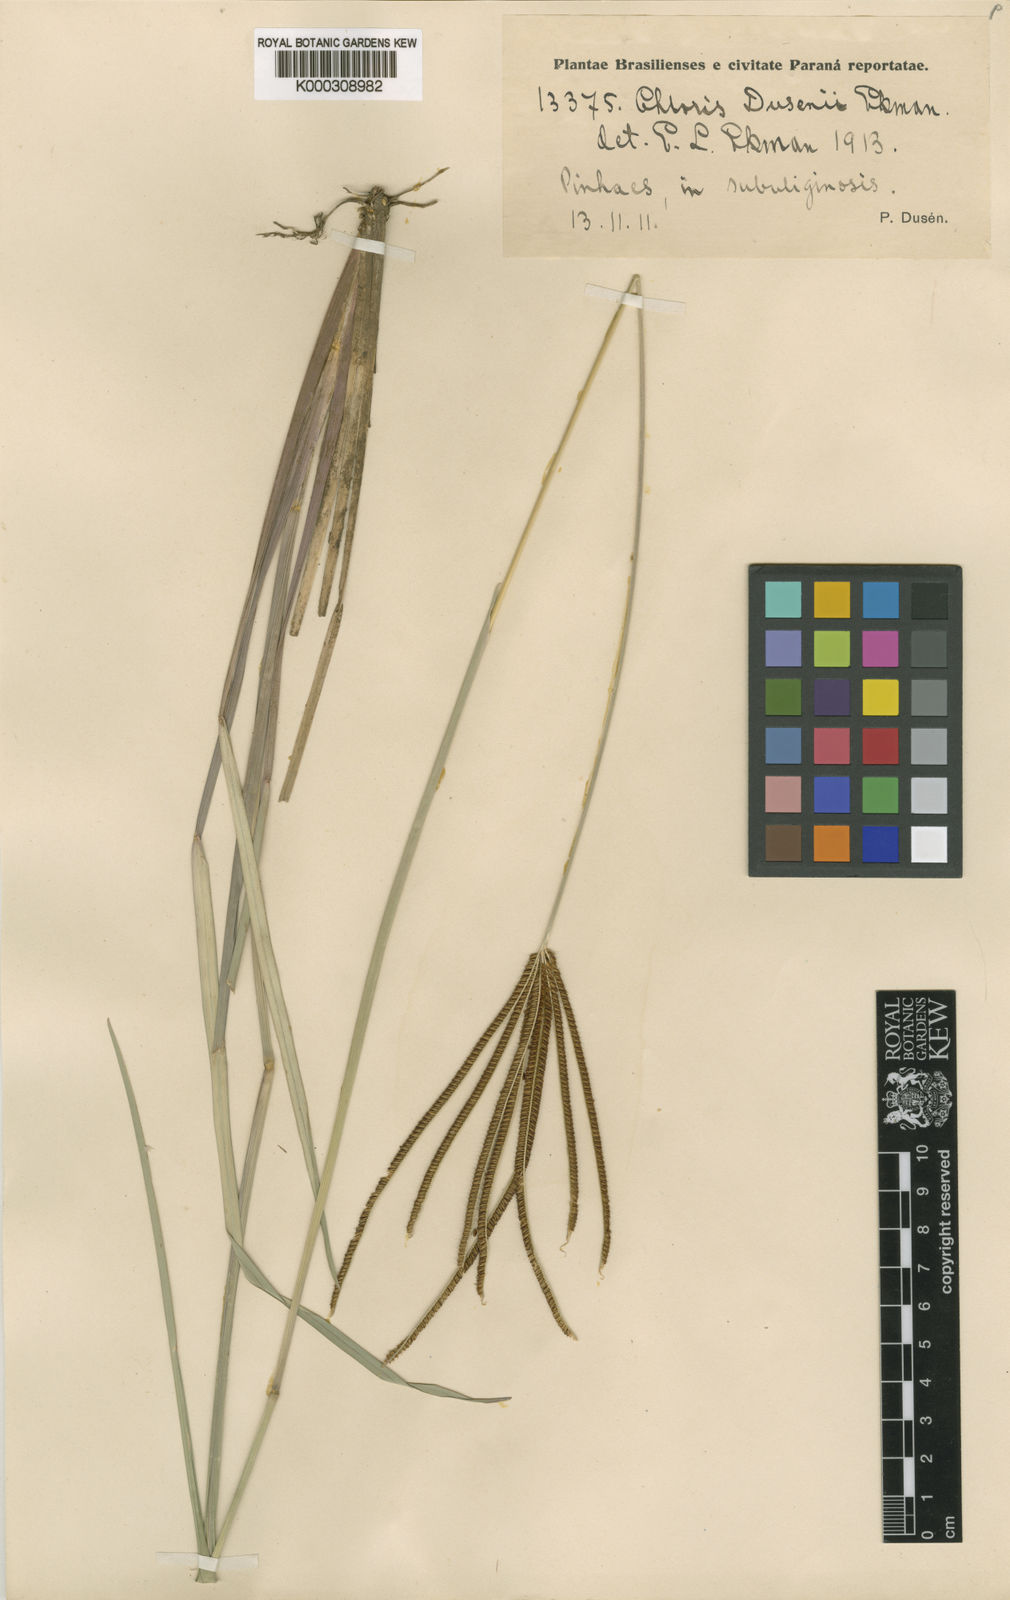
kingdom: Plantae
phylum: Tracheophyta
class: Liliopsida
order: Poales
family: Poaceae
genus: Eustachys
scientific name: Eustachys petraea
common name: Pinewoods fingergrass
